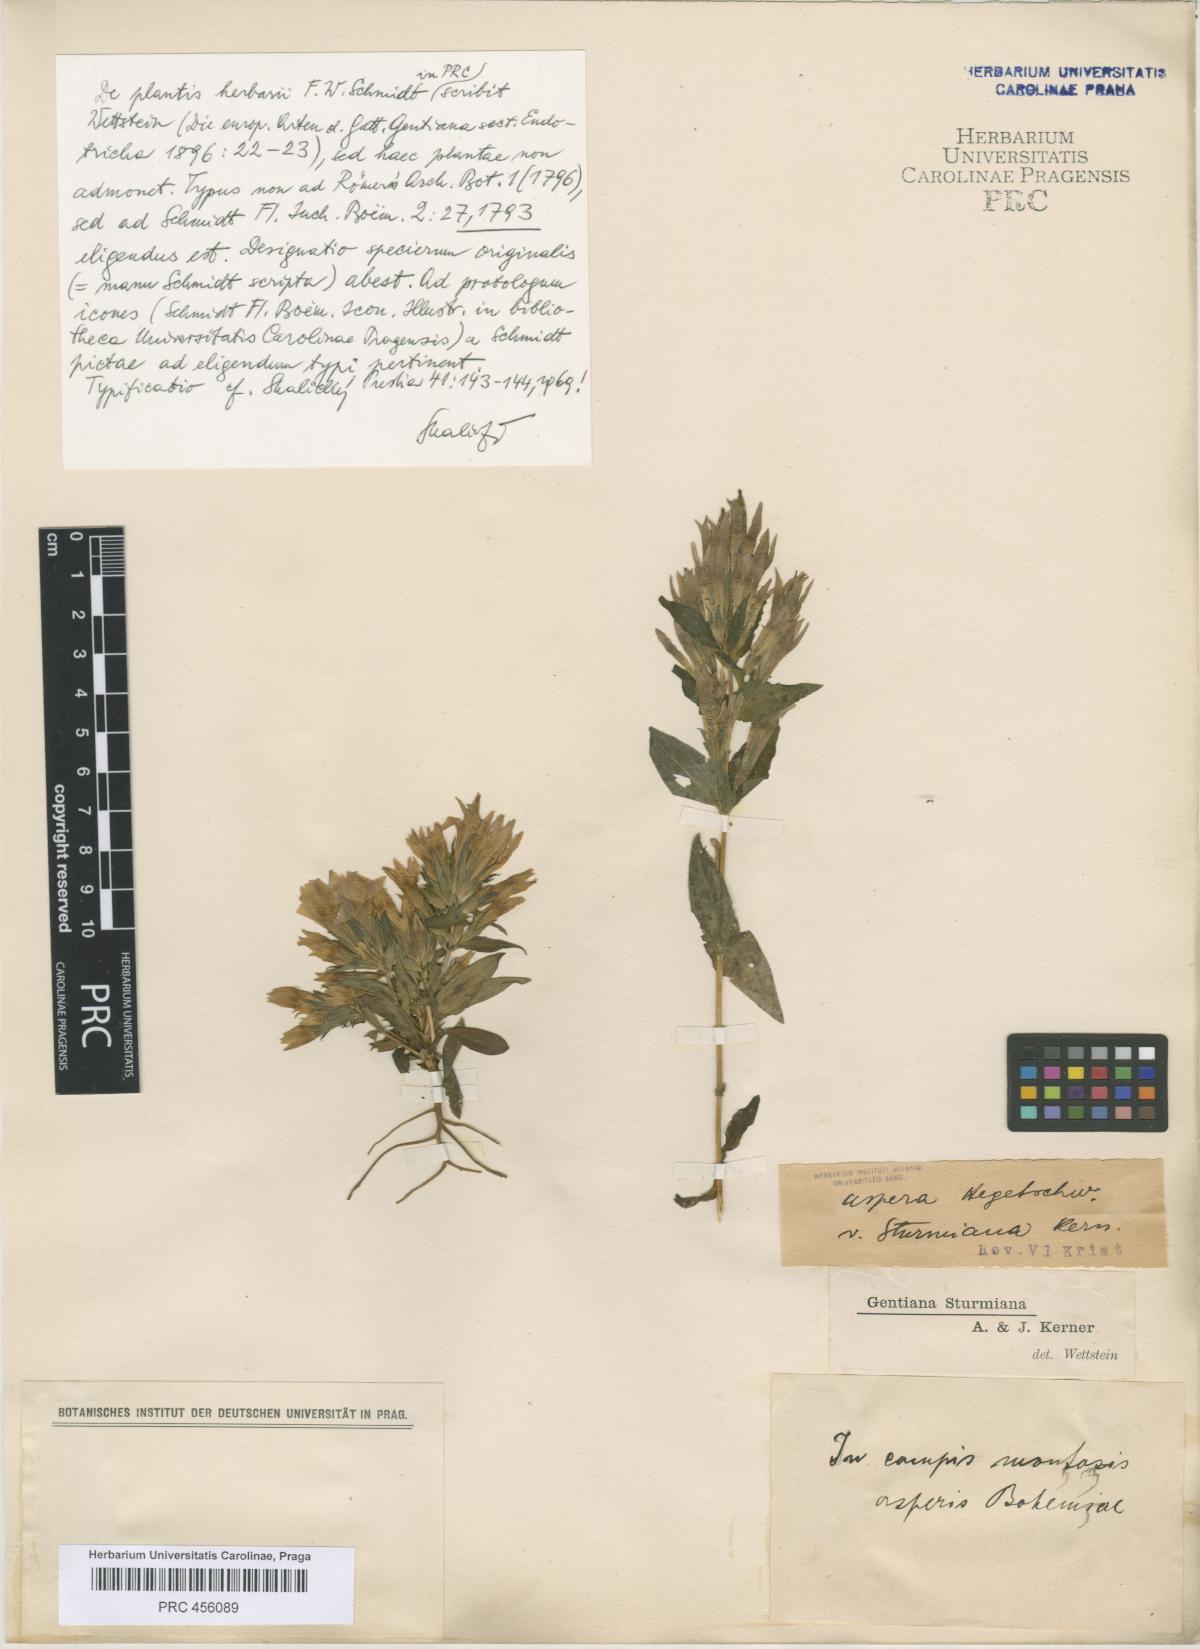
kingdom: Plantae
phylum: Tracheophyta
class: Magnoliopsida
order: Gentianales
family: Gentianaceae
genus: Gentianella
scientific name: Gentianella obtusifolia
